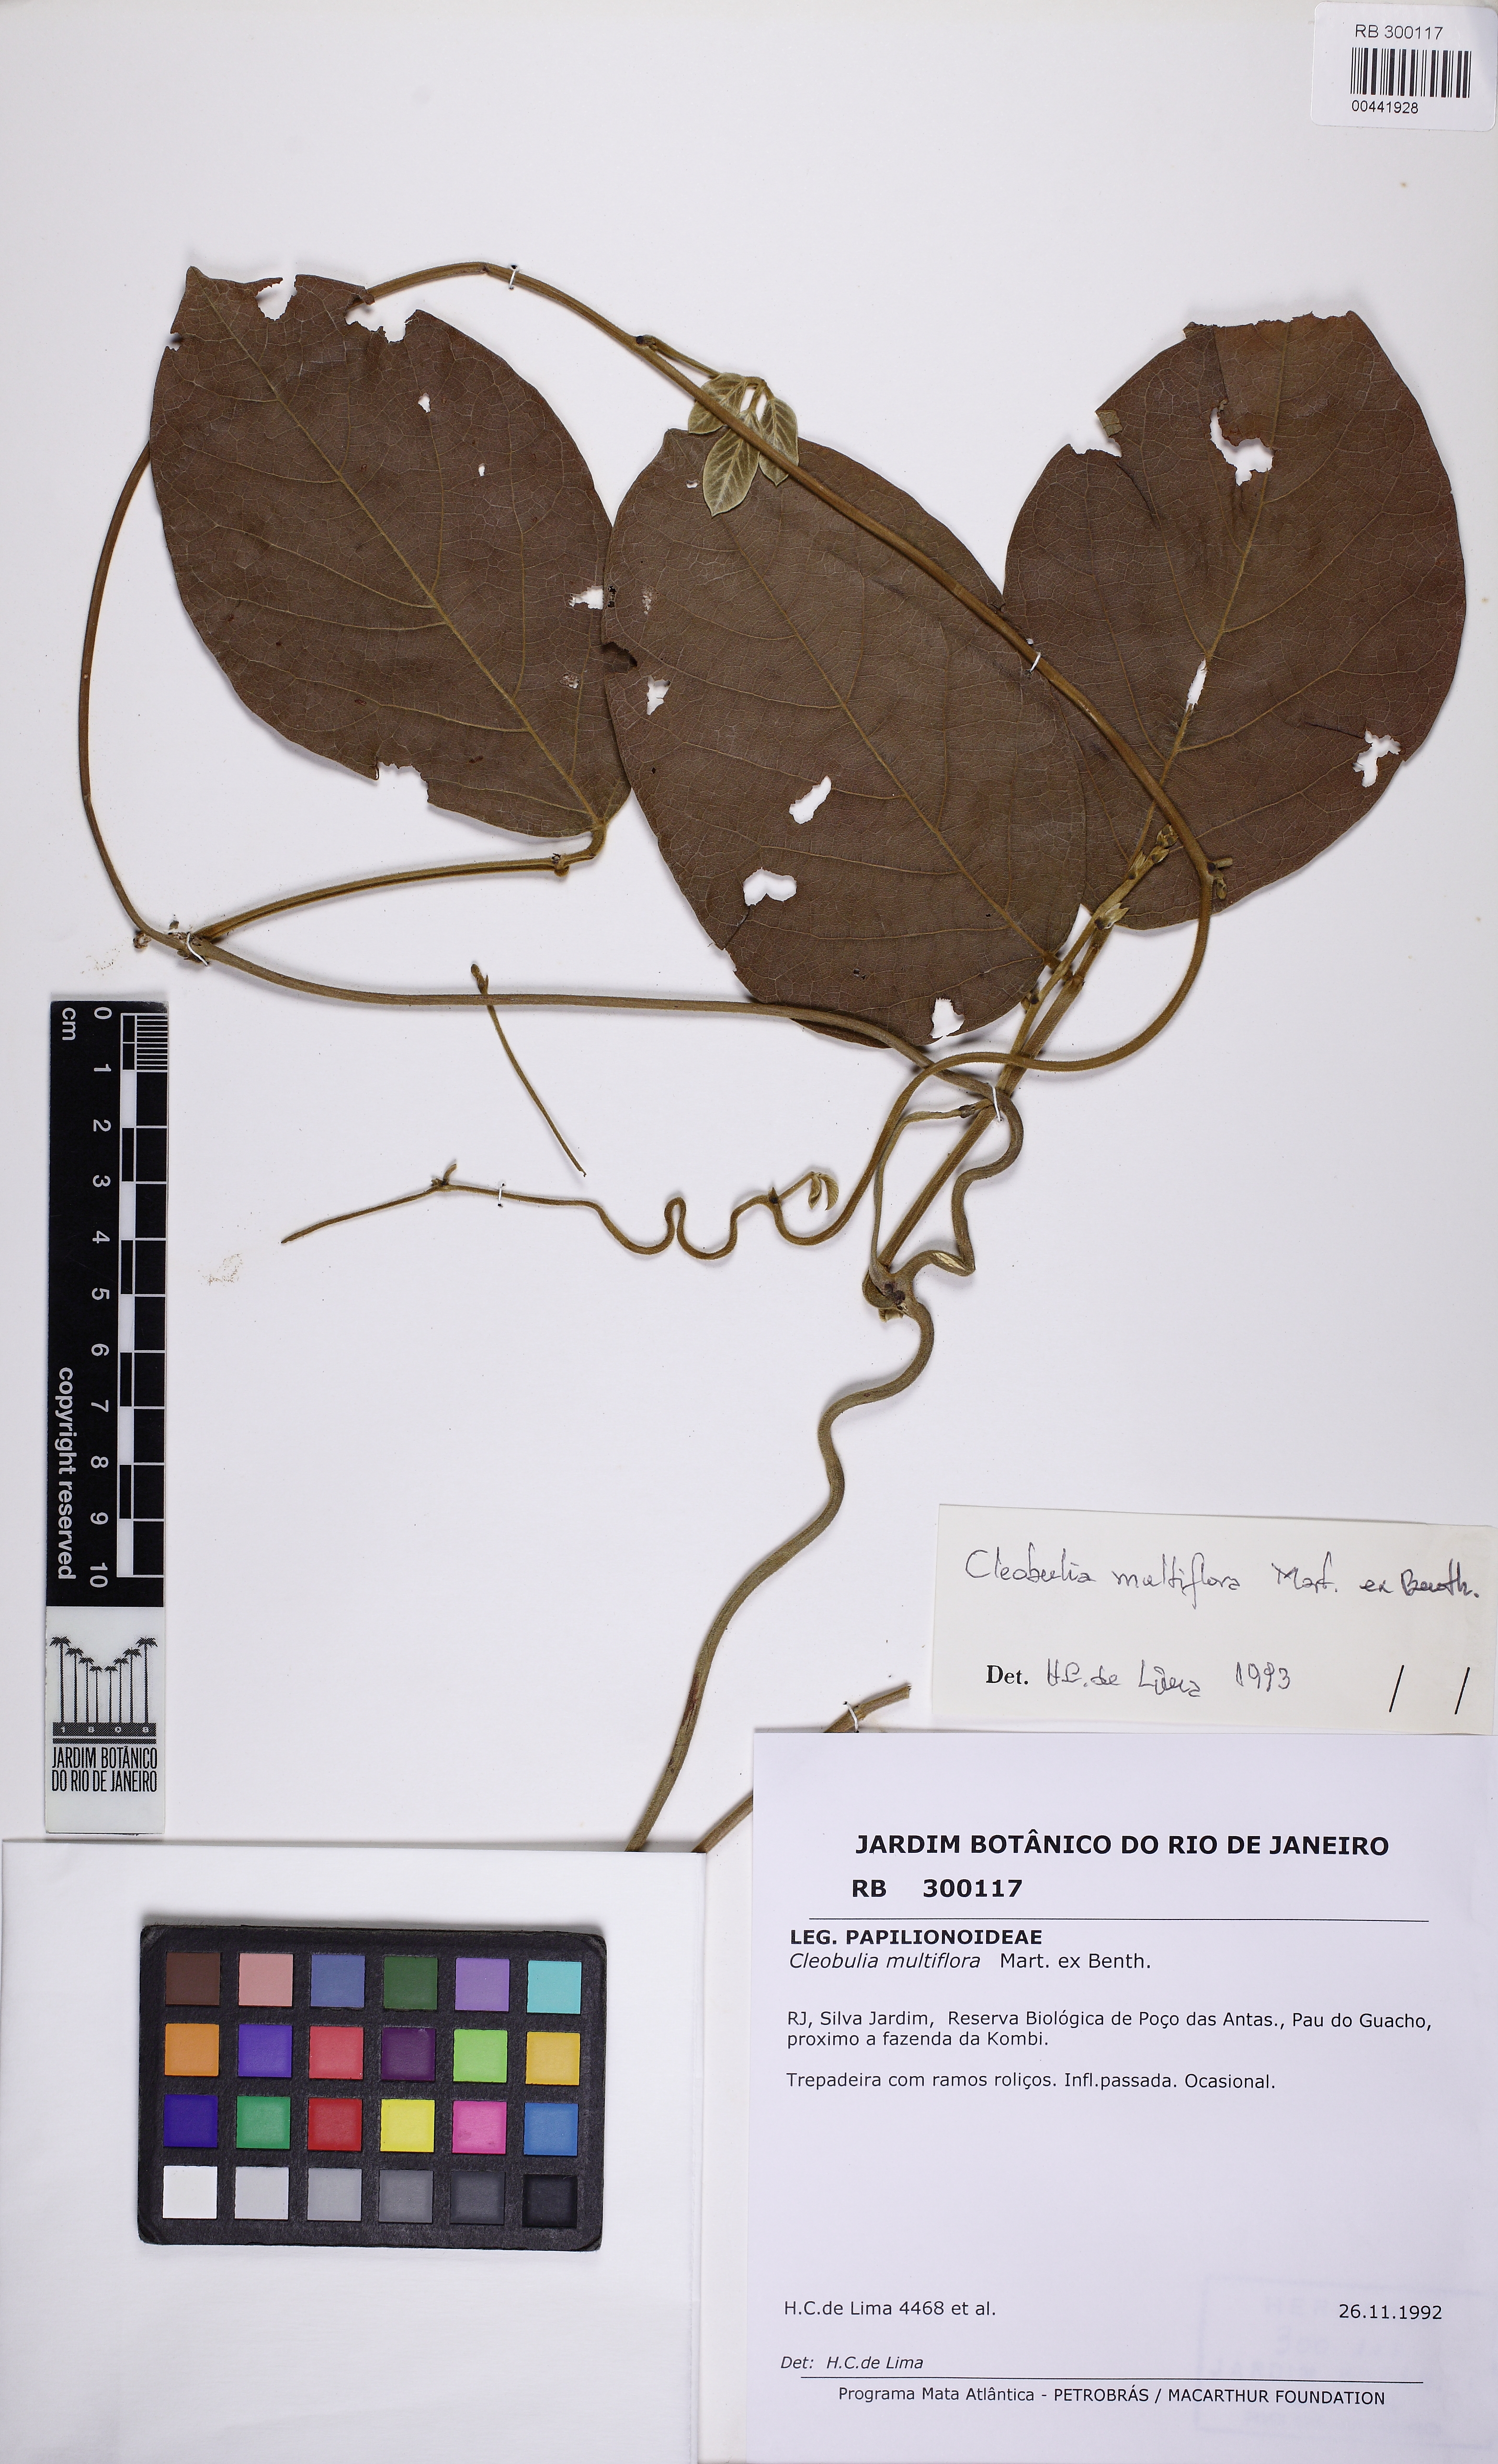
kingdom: Plantae
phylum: Tracheophyta
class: Magnoliopsida
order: Fabales
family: Fabaceae
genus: Cleobulia
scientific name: Cleobulia coccinea
